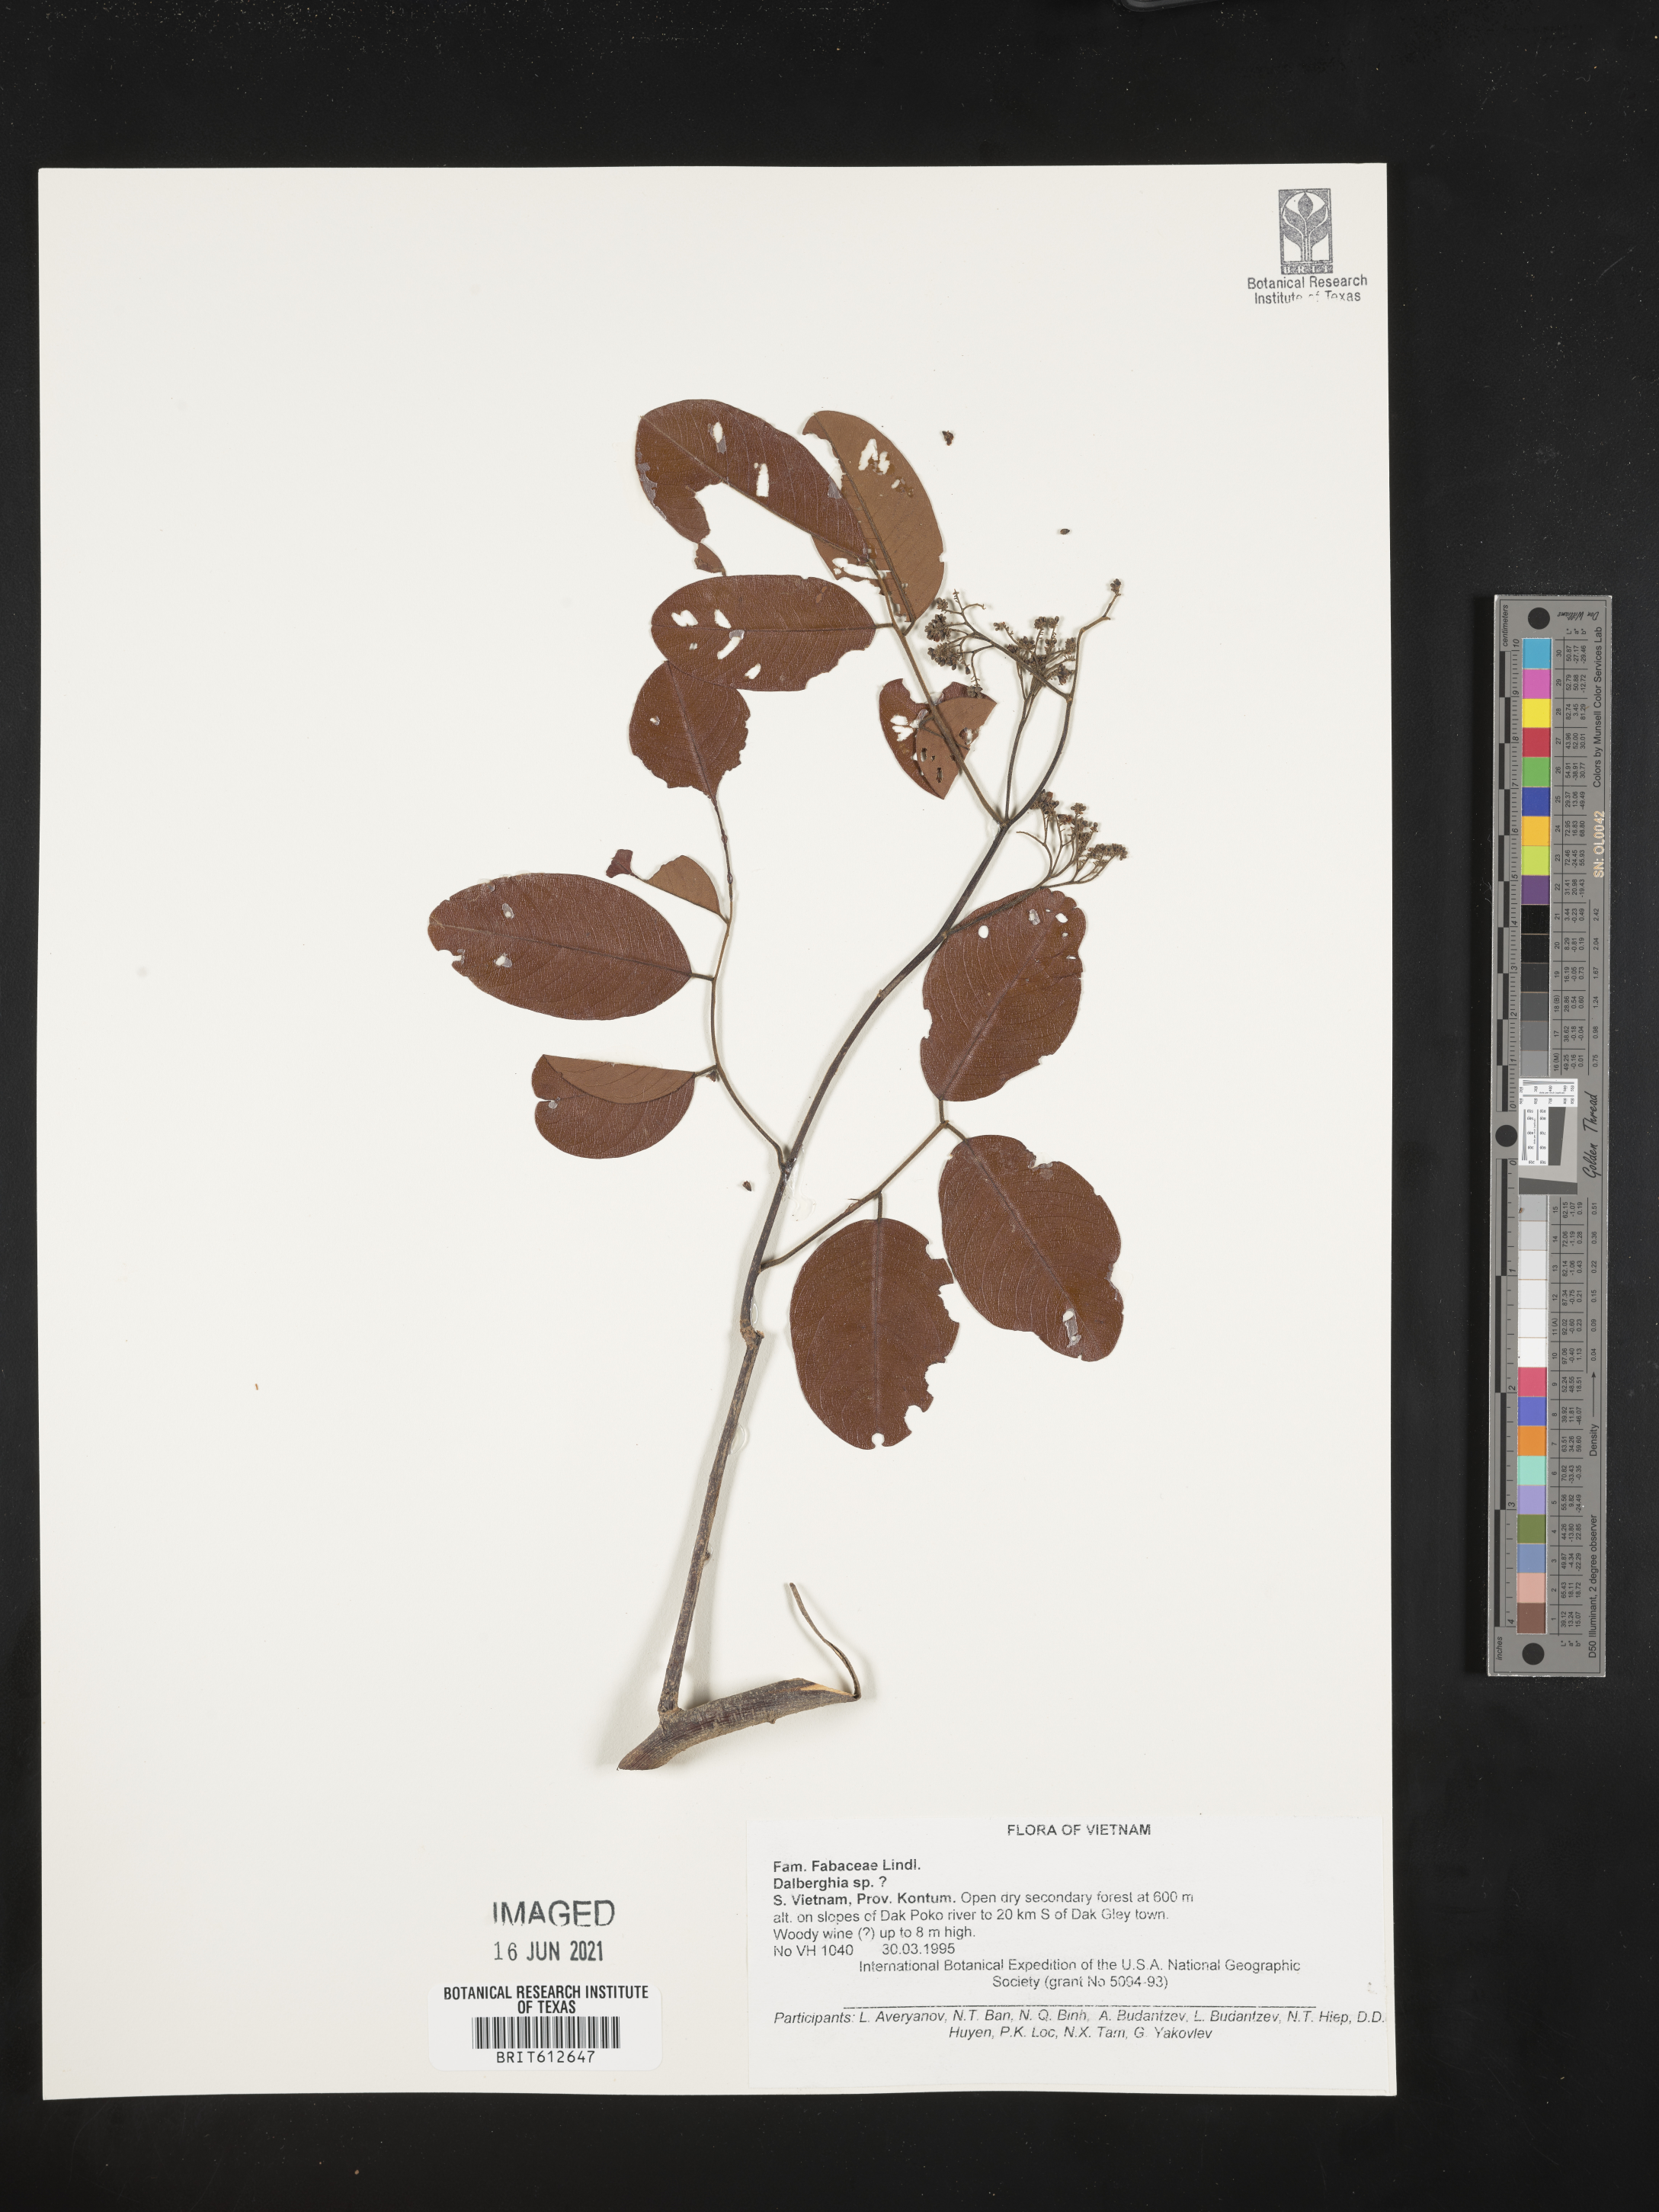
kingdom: Plantae
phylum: Tracheophyta
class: Magnoliopsida
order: Fabales
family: Fabaceae
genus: Dalbergia
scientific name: Dalbergia
